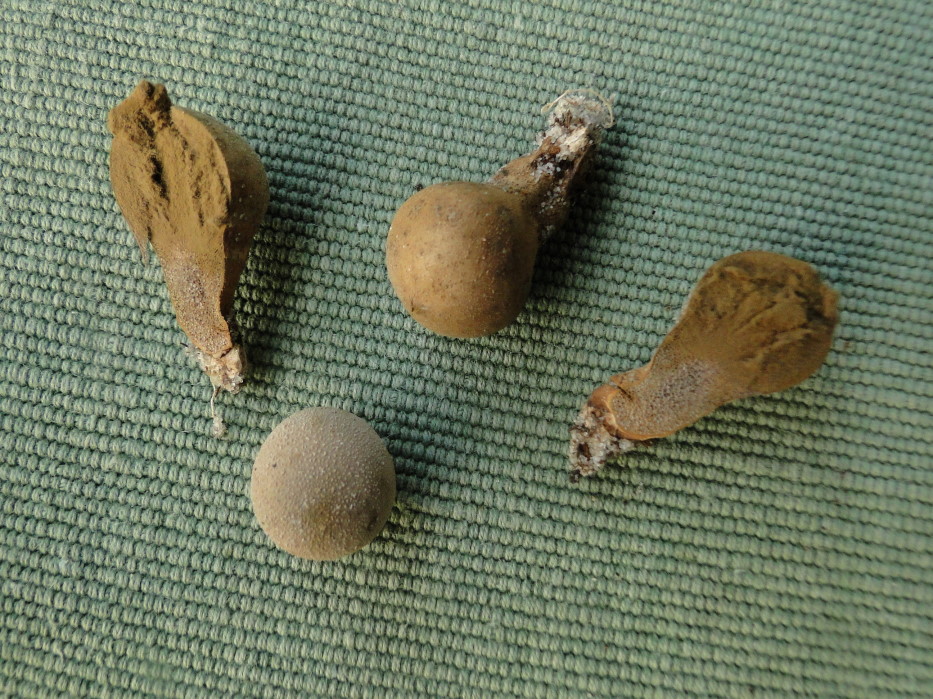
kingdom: Fungi
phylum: Basidiomycota
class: Agaricomycetes
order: Agaricales
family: Lycoperdaceae
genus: Lycoperdon
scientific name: Lycoperdon lividum
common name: mark-støvbold
